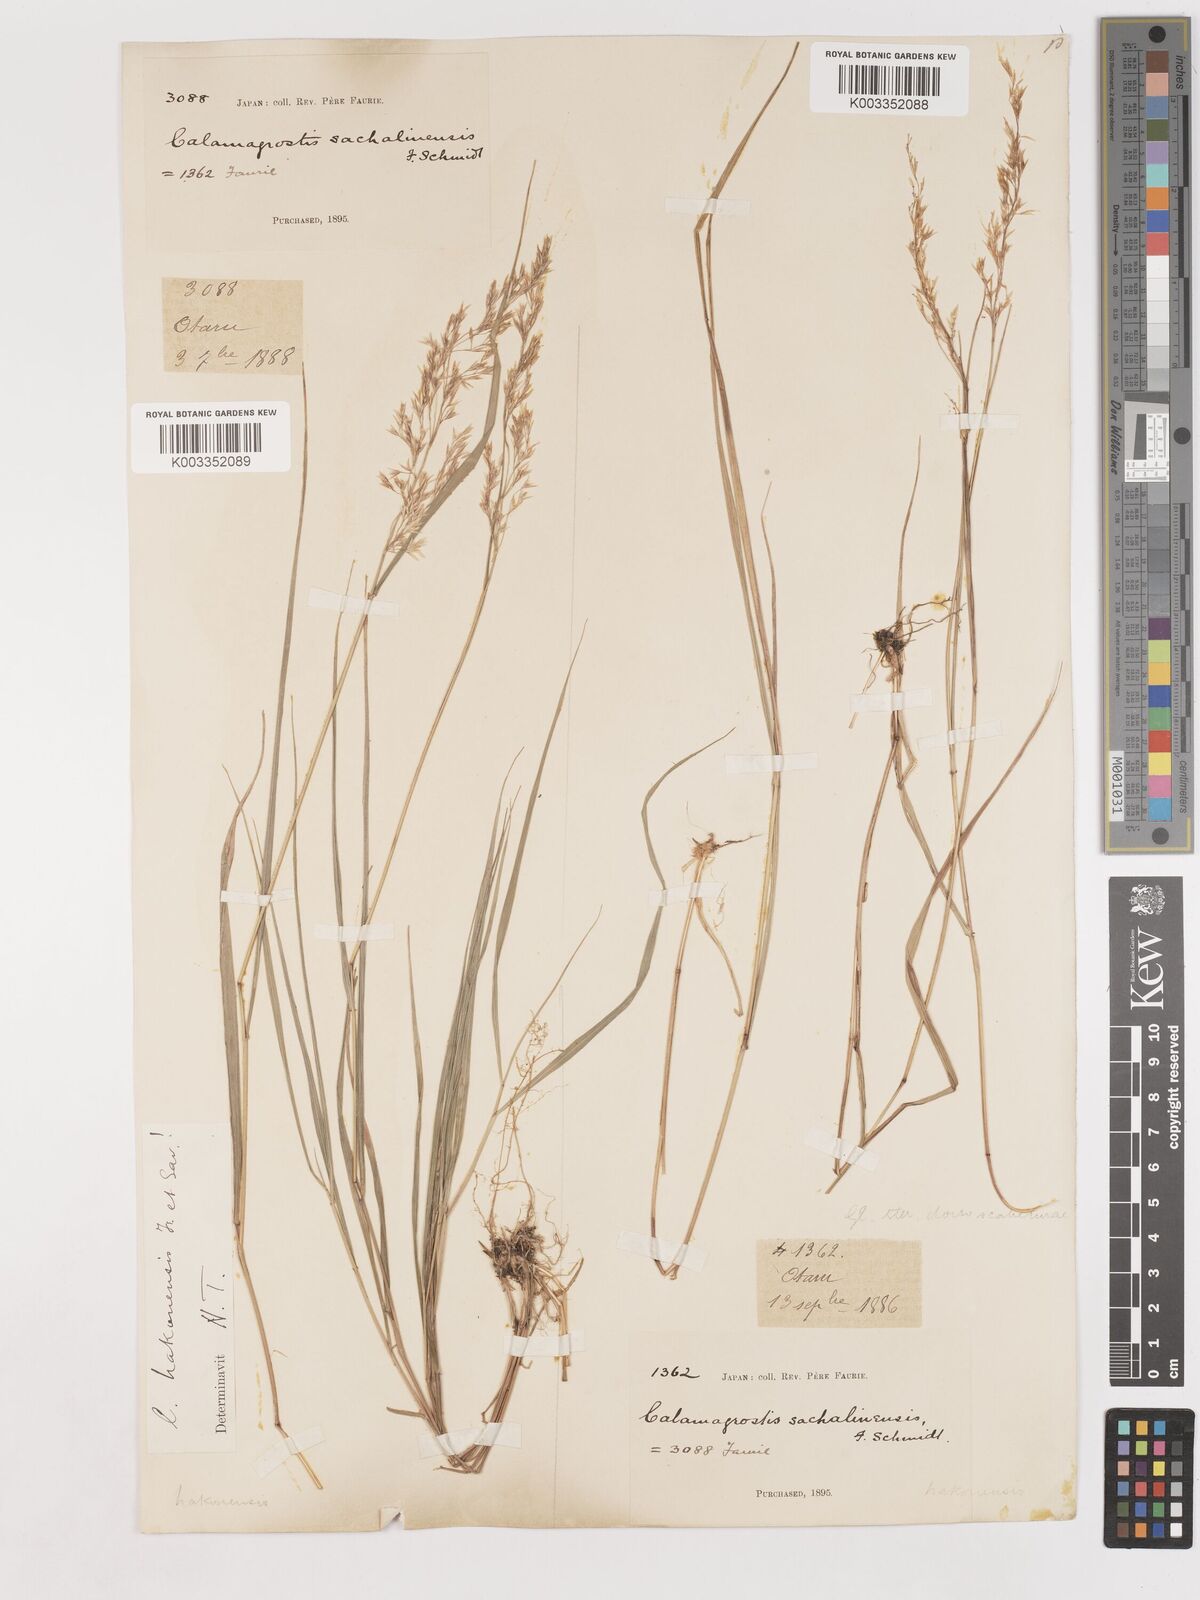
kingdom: Plantae
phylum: Tracheophyta
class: Liliopsida
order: Poales
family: Poaceae
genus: Calamagrostis
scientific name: Calamagrostis hakonensis
